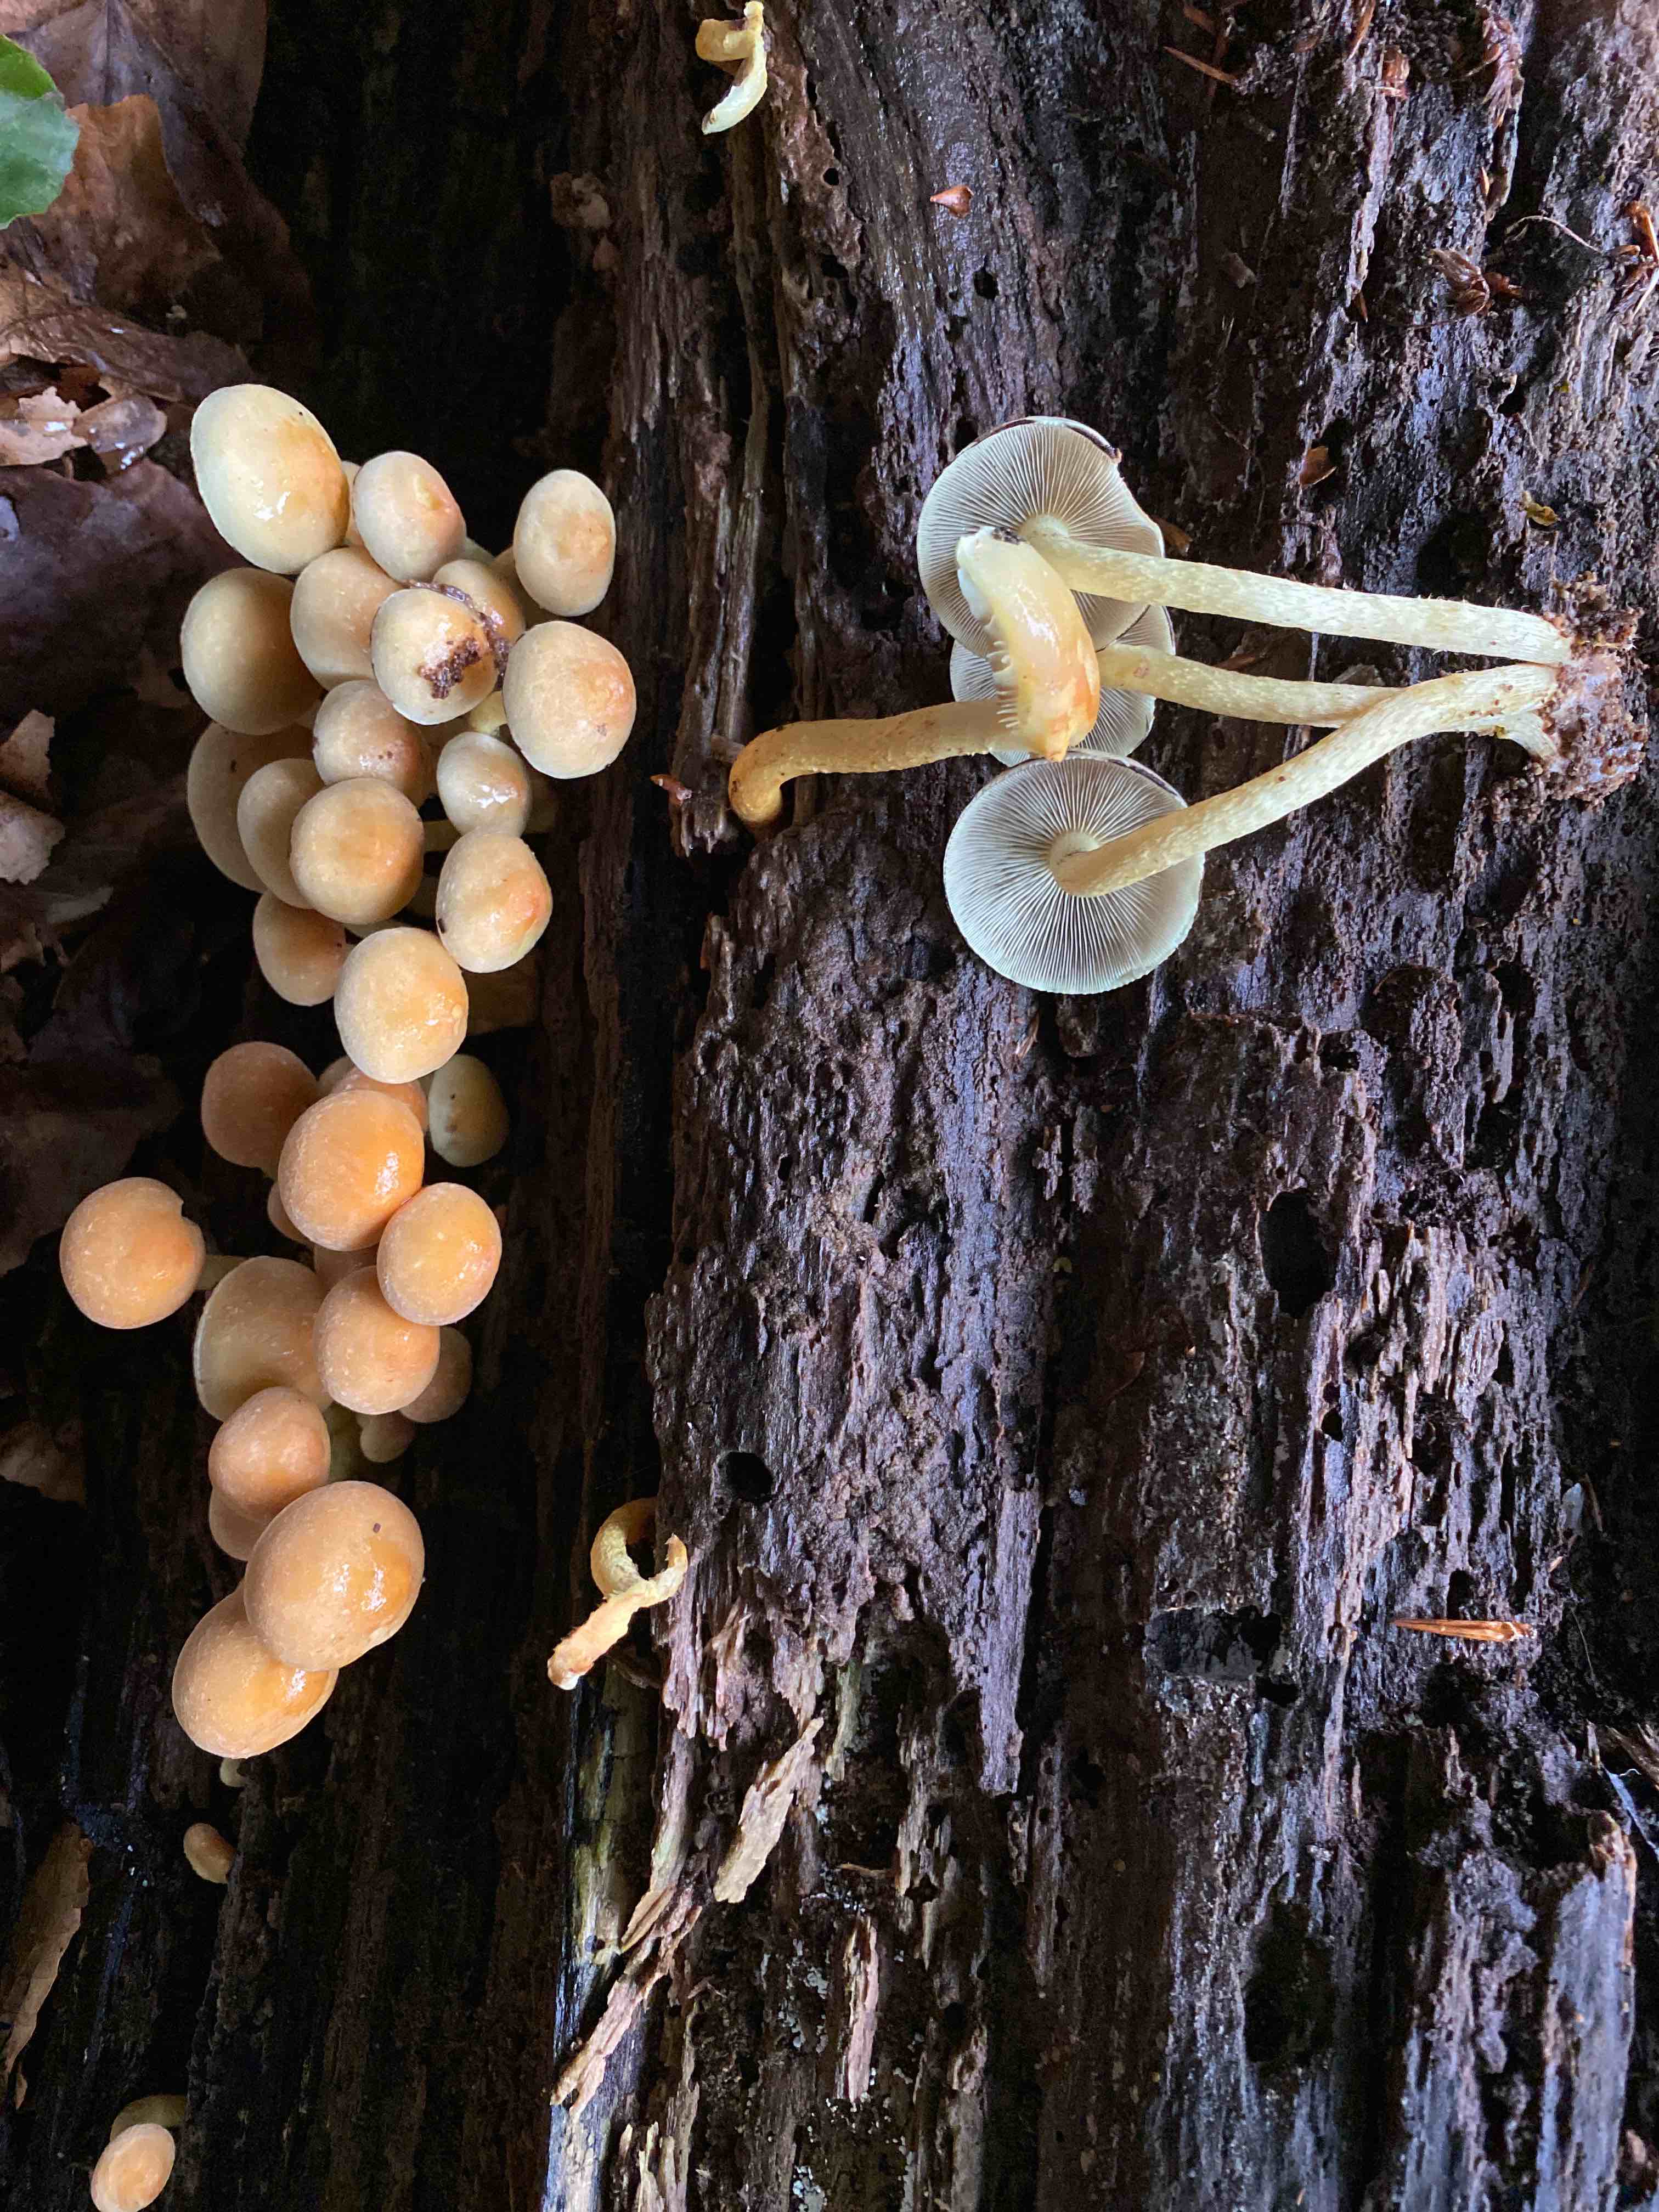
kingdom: Fungi
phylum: Basidiomycota
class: Agaricomycetes
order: Agaricales
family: Strophariaceae
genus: Hypholoma
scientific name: Hypholoma fasciculare
